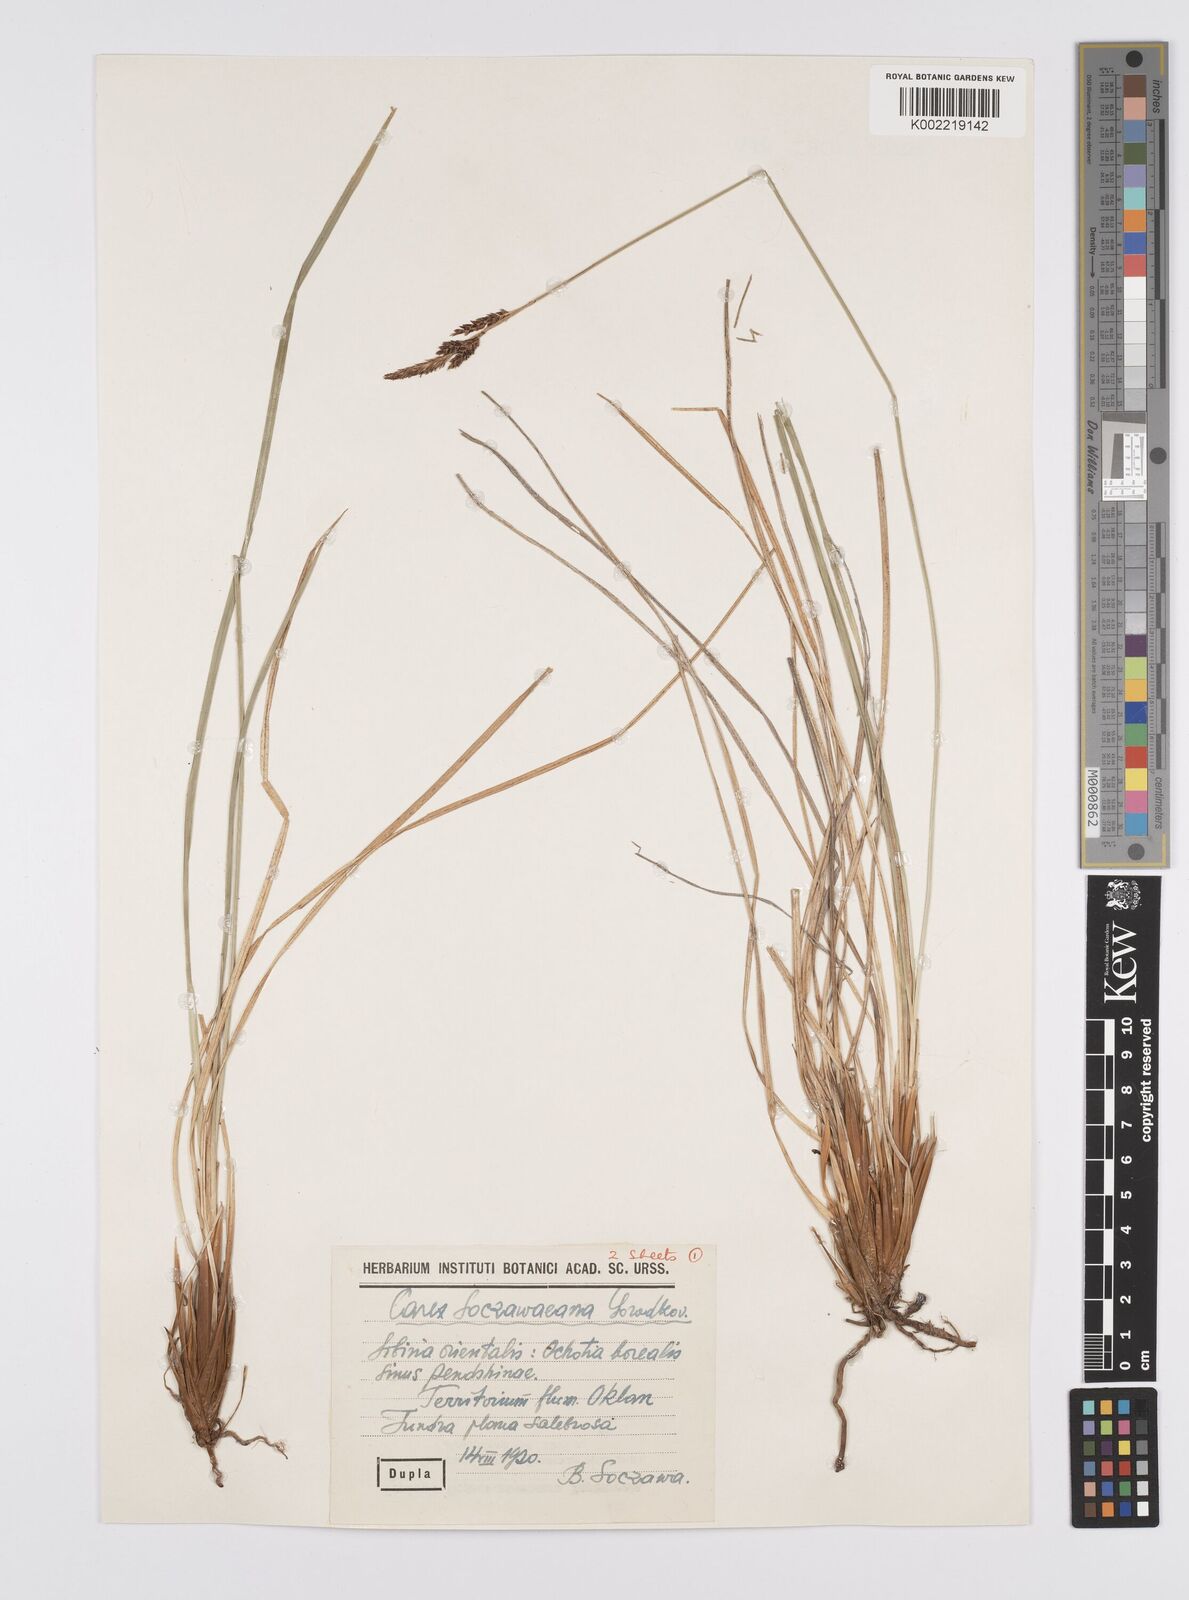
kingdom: Plantae
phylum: Tracheophyta
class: Liliopsida
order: Poales
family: Cyperaceae
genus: Carex
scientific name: Carex soczavaeana
